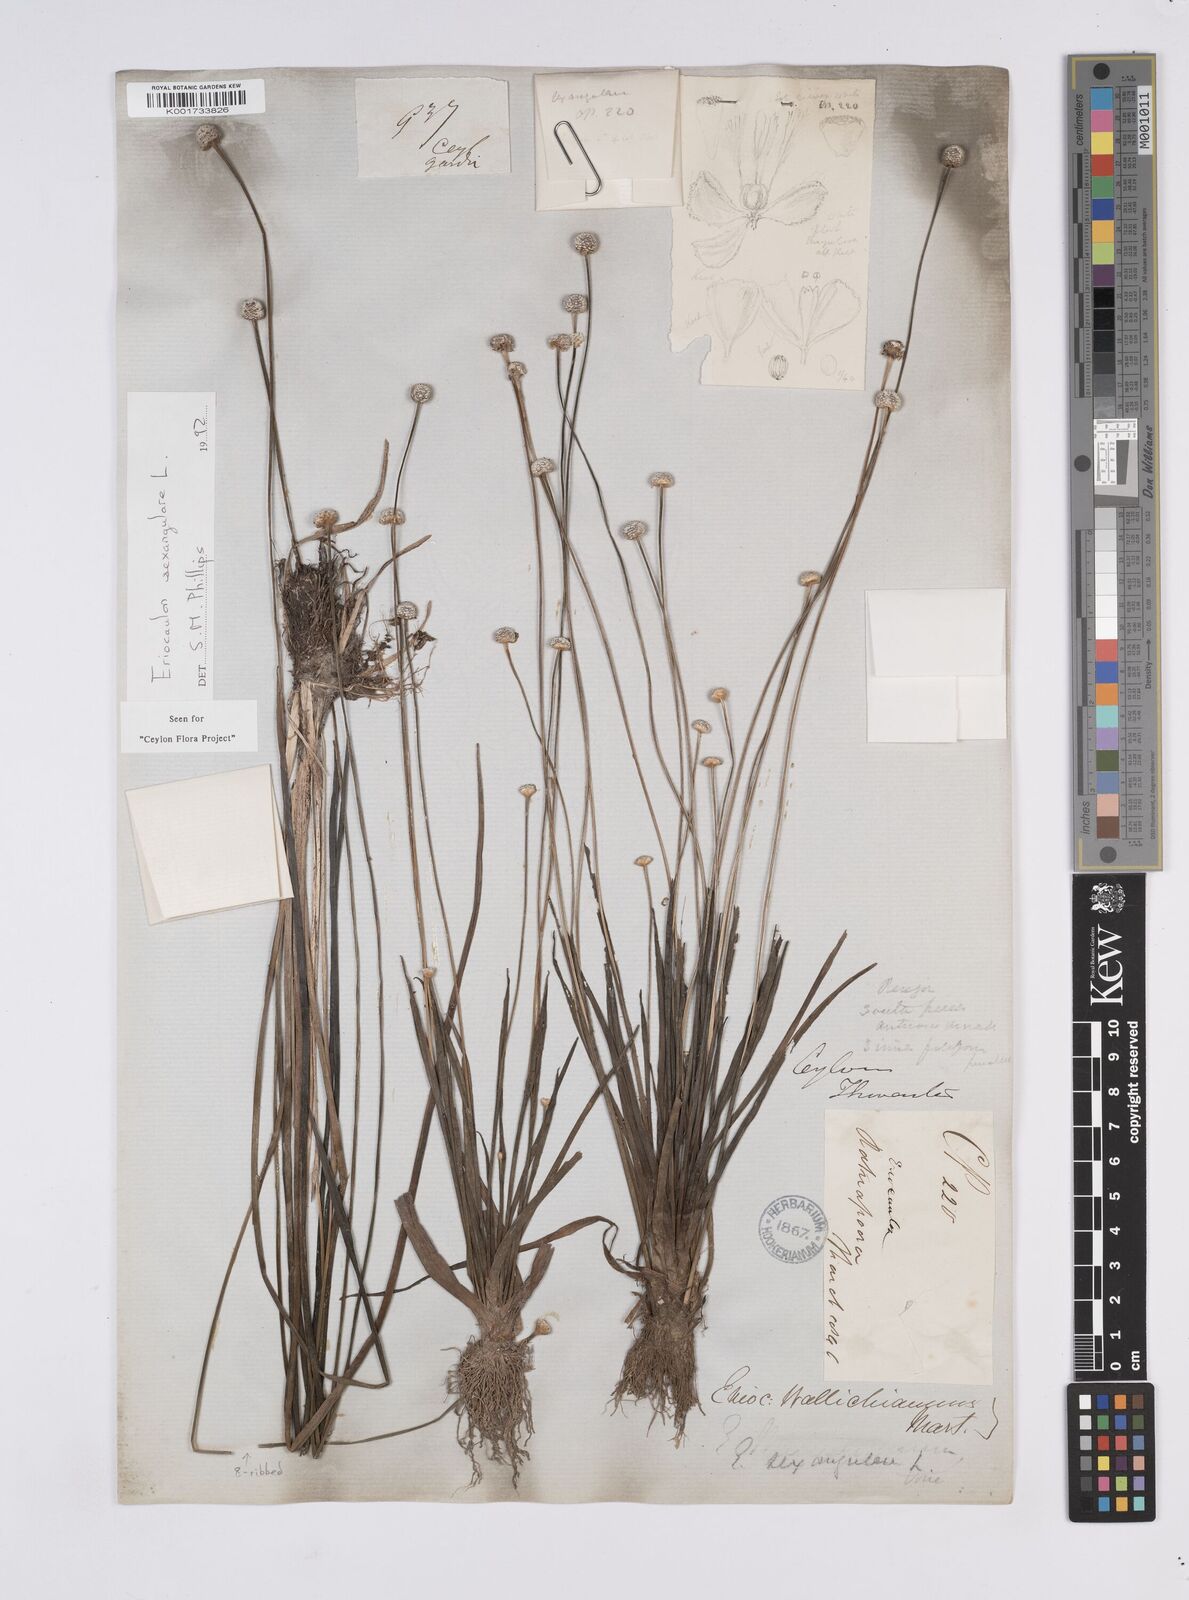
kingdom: Plantae
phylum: Tracheophyta
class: Liliopsida
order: Poales
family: Eriocaulaceae
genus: Eriocaulon
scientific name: Eriocaulon sexangulare
